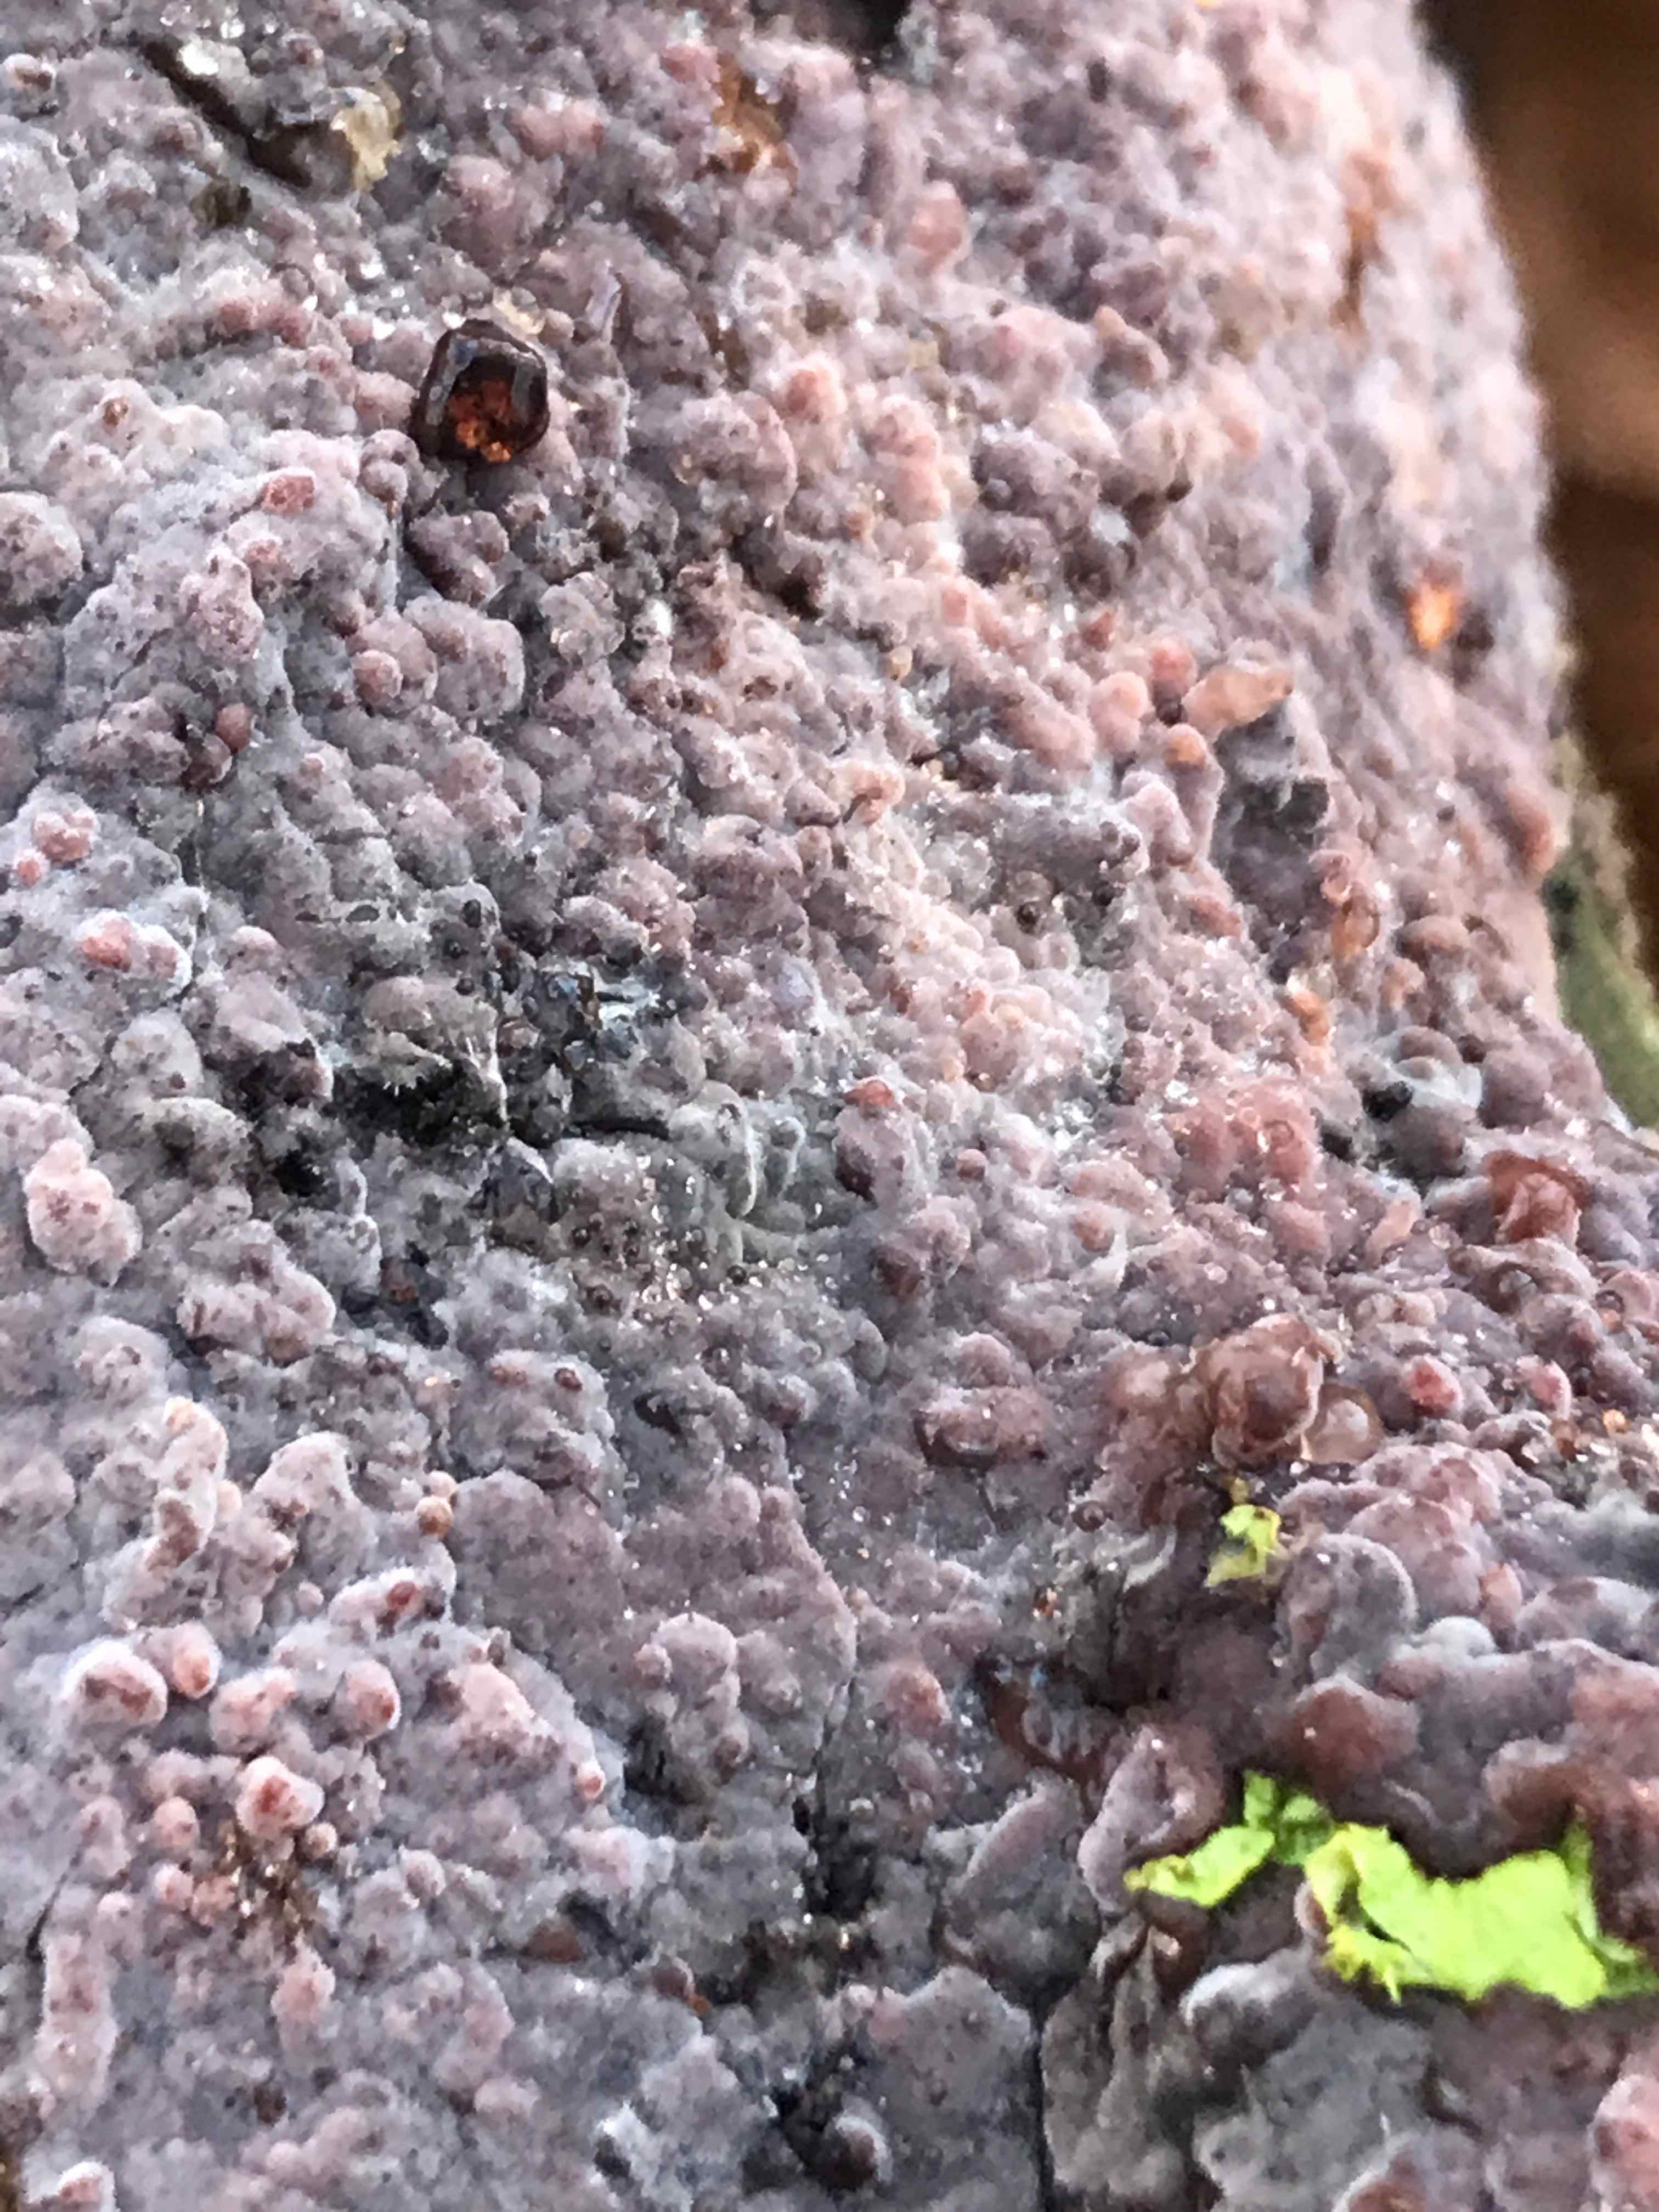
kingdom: Fungi
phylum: Basidiomycota
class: Agaricomycetes
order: Russulales
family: Peniophoraceae
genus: Peniophora
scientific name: Peniophora quercina
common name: ege-voksskind
